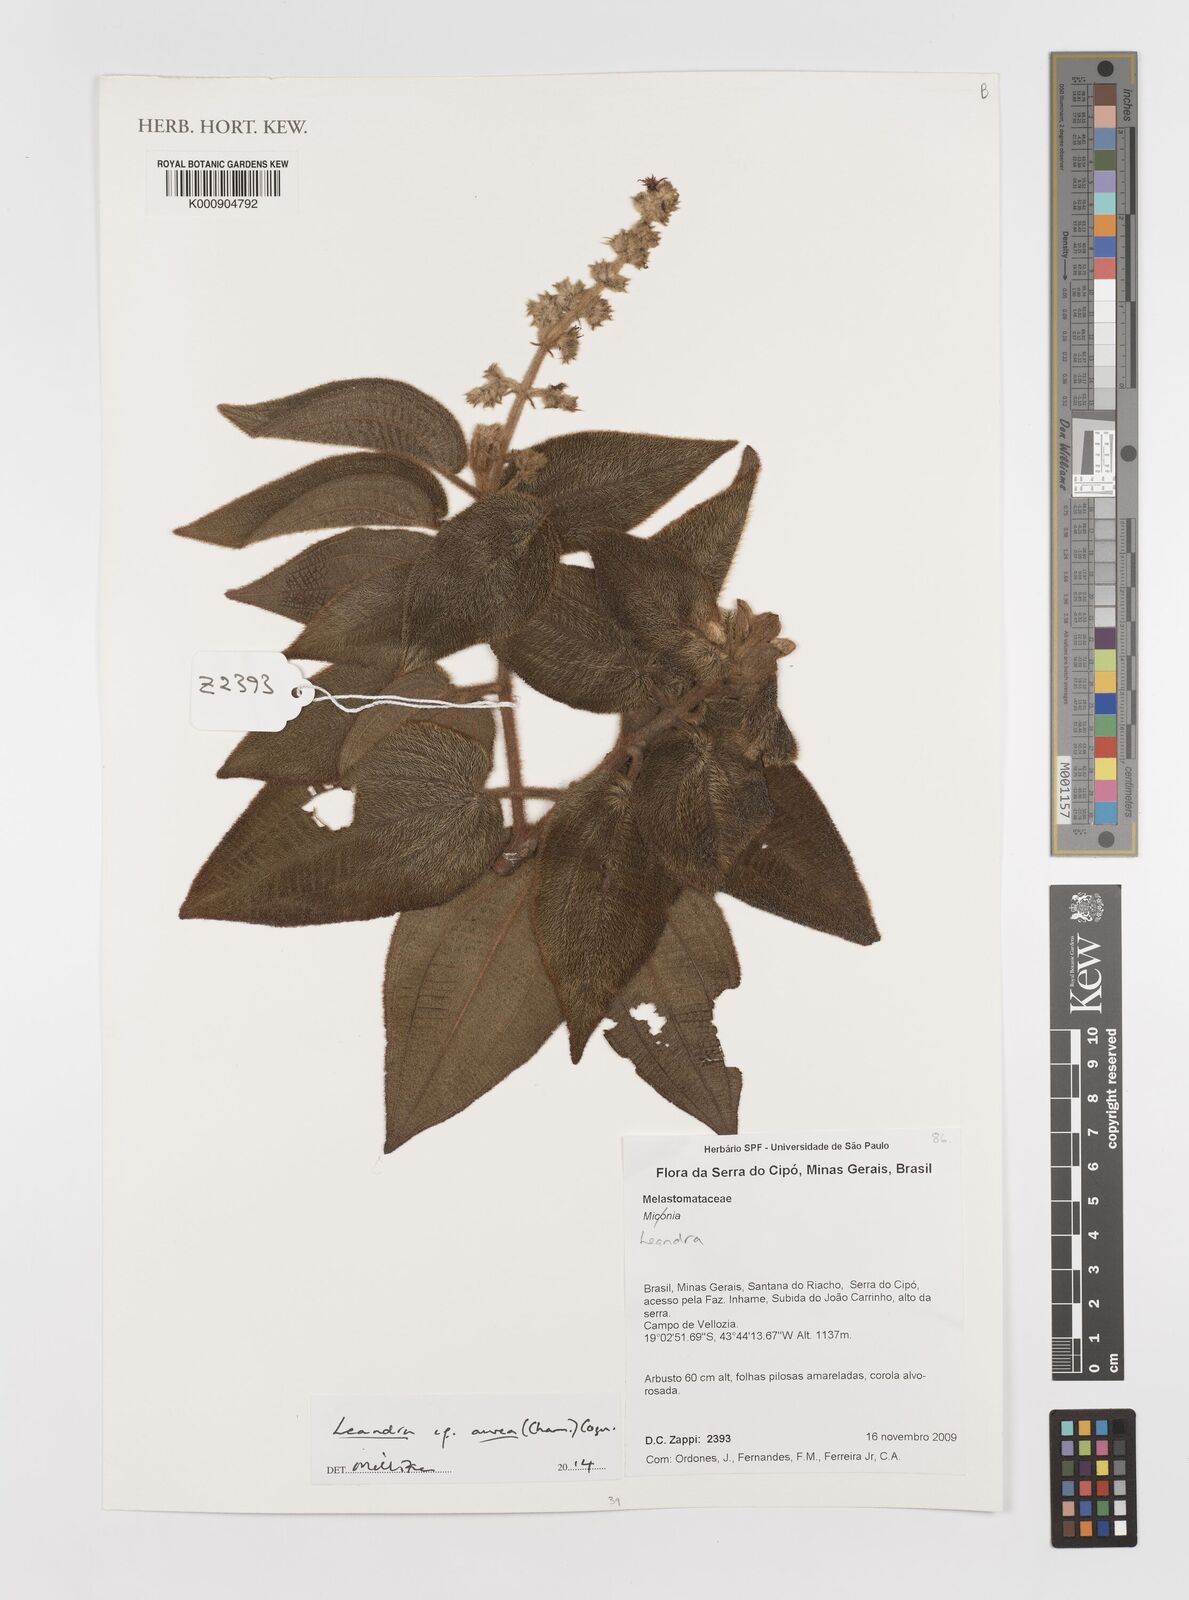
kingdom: Plantae
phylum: Tracheophyta
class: Magnoliopsida
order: Myrtales
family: Melastomataceae
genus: Miconia
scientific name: Miconia auricoma
